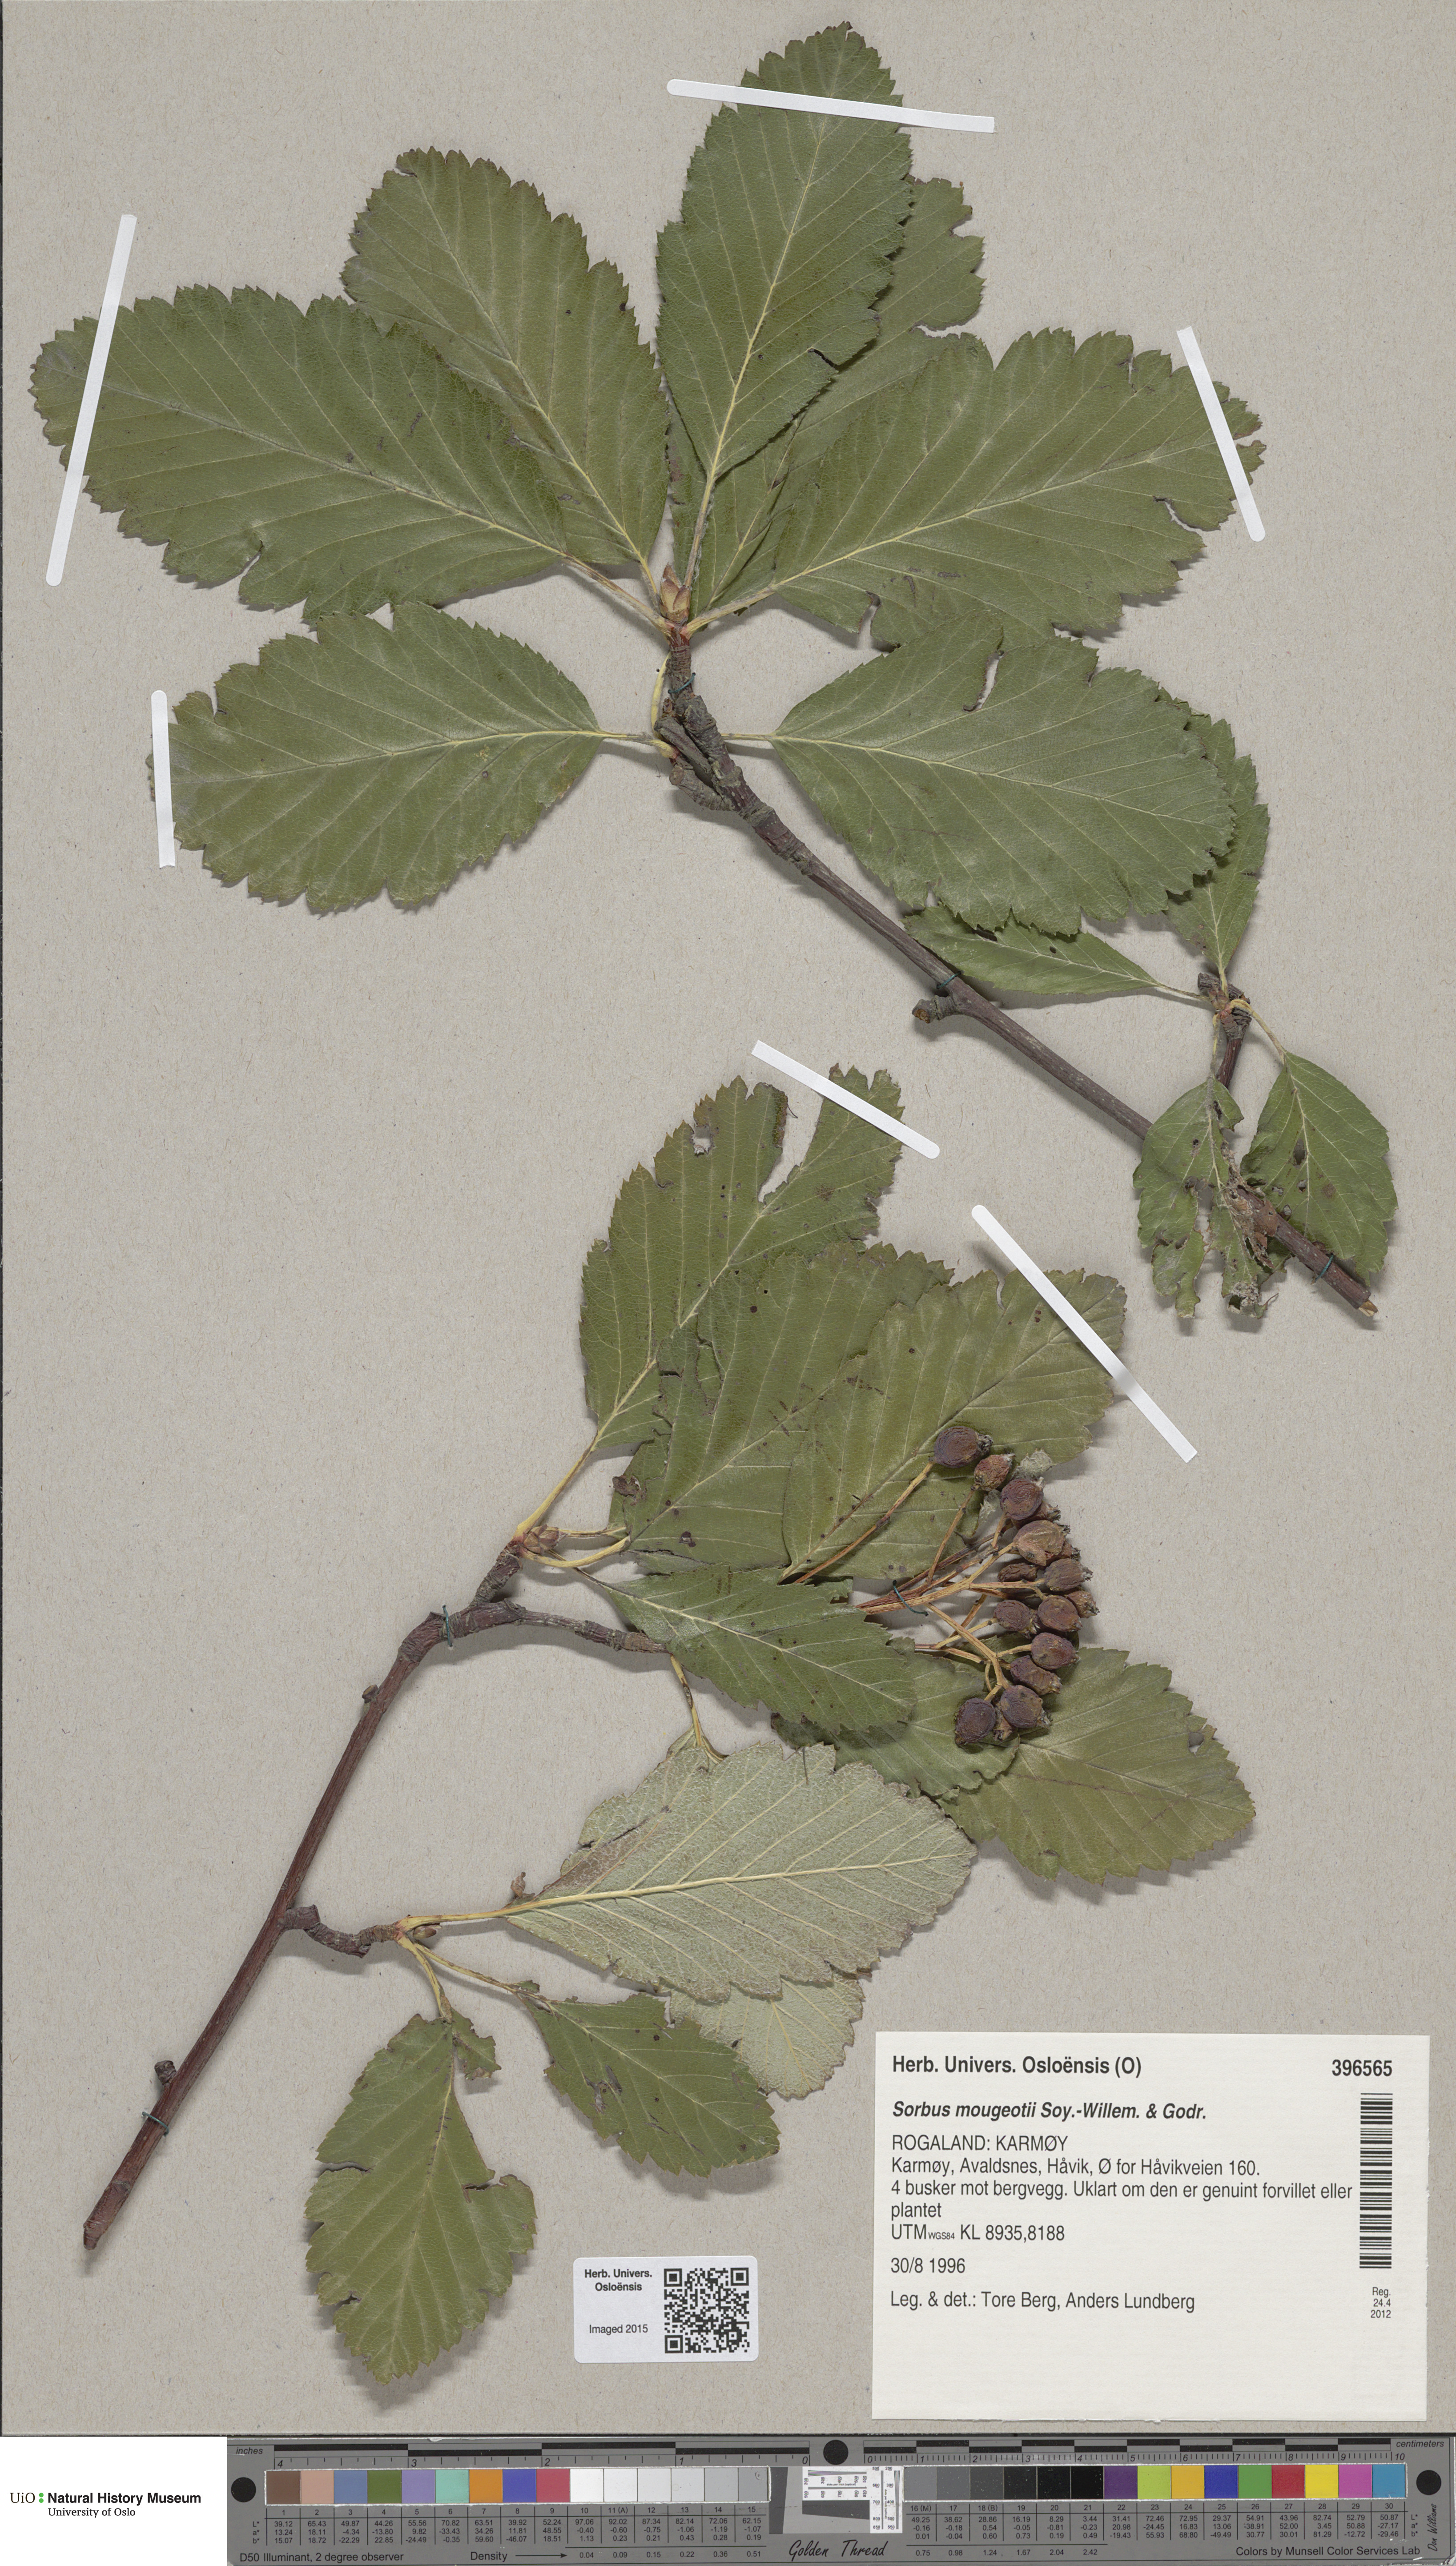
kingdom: Plantae
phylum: Tracheophyta
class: Magnoliopsida
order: Rosales
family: Rosaceae
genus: Hedlundia
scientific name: Hedlundia mougeotii
